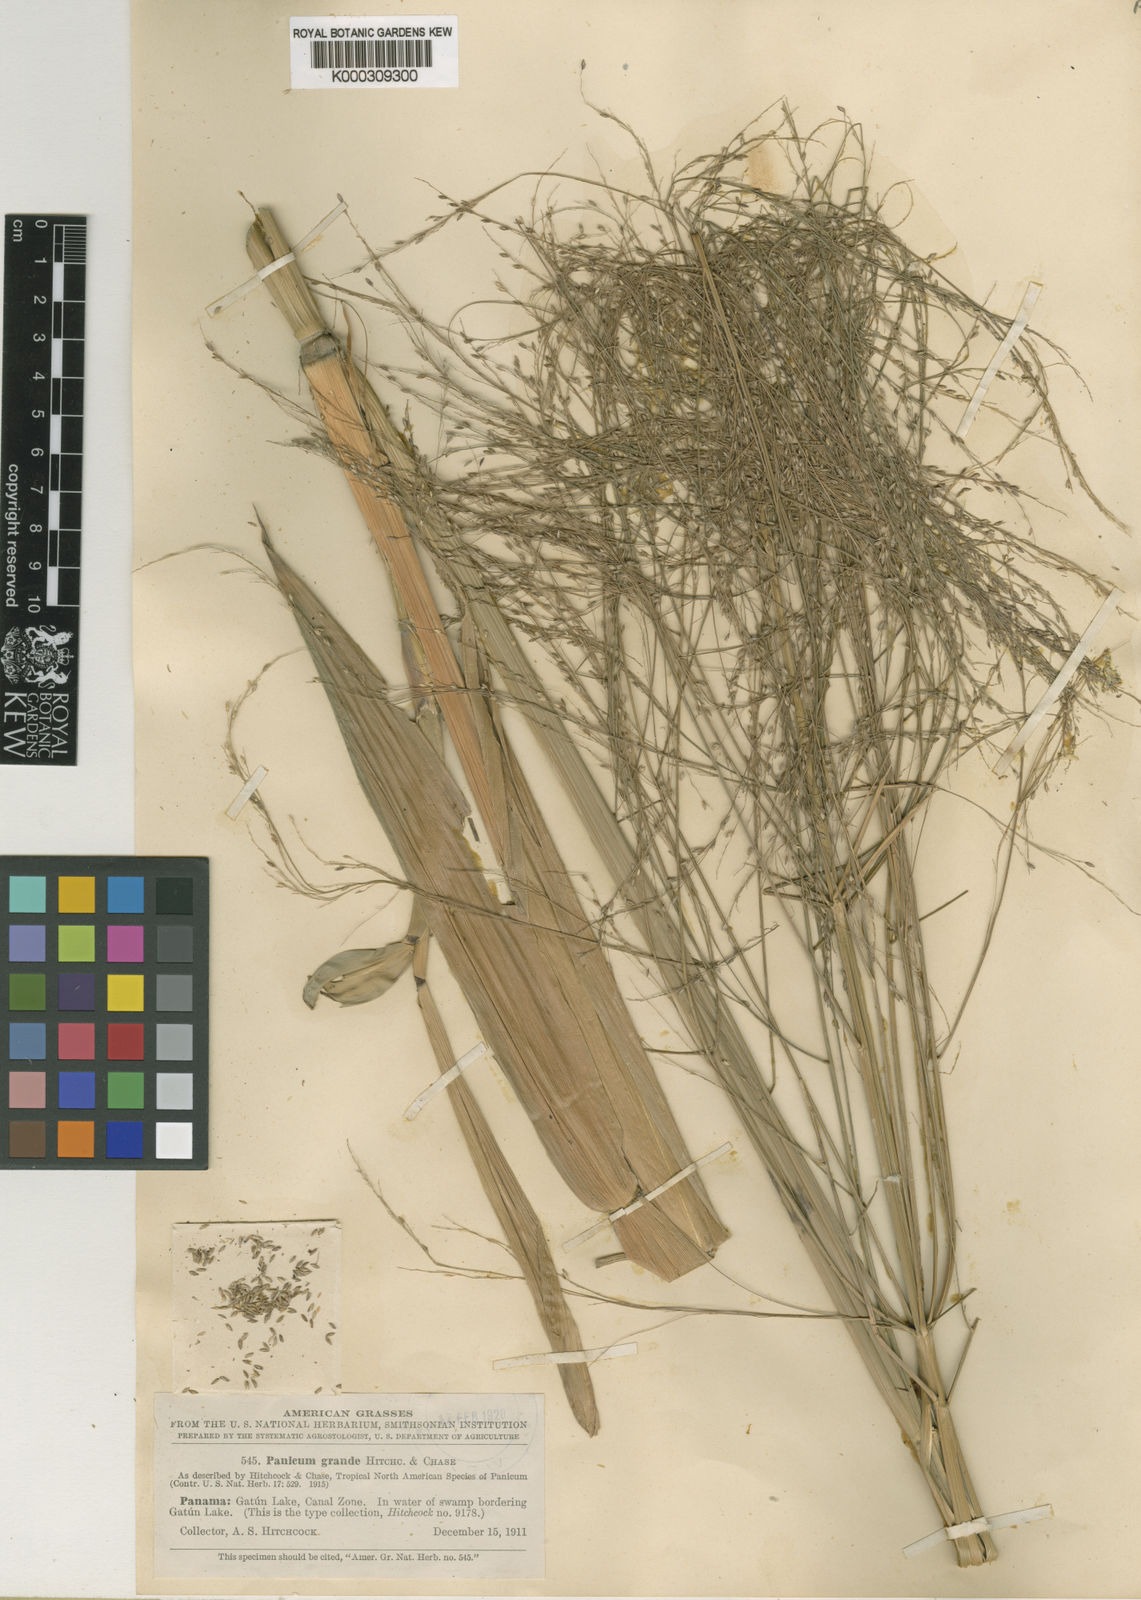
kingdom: Plantae
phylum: Tracheophyta
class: Liliopsida
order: Poales
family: Poaceae
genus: Hymenachne
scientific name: Hymenachne grandis
